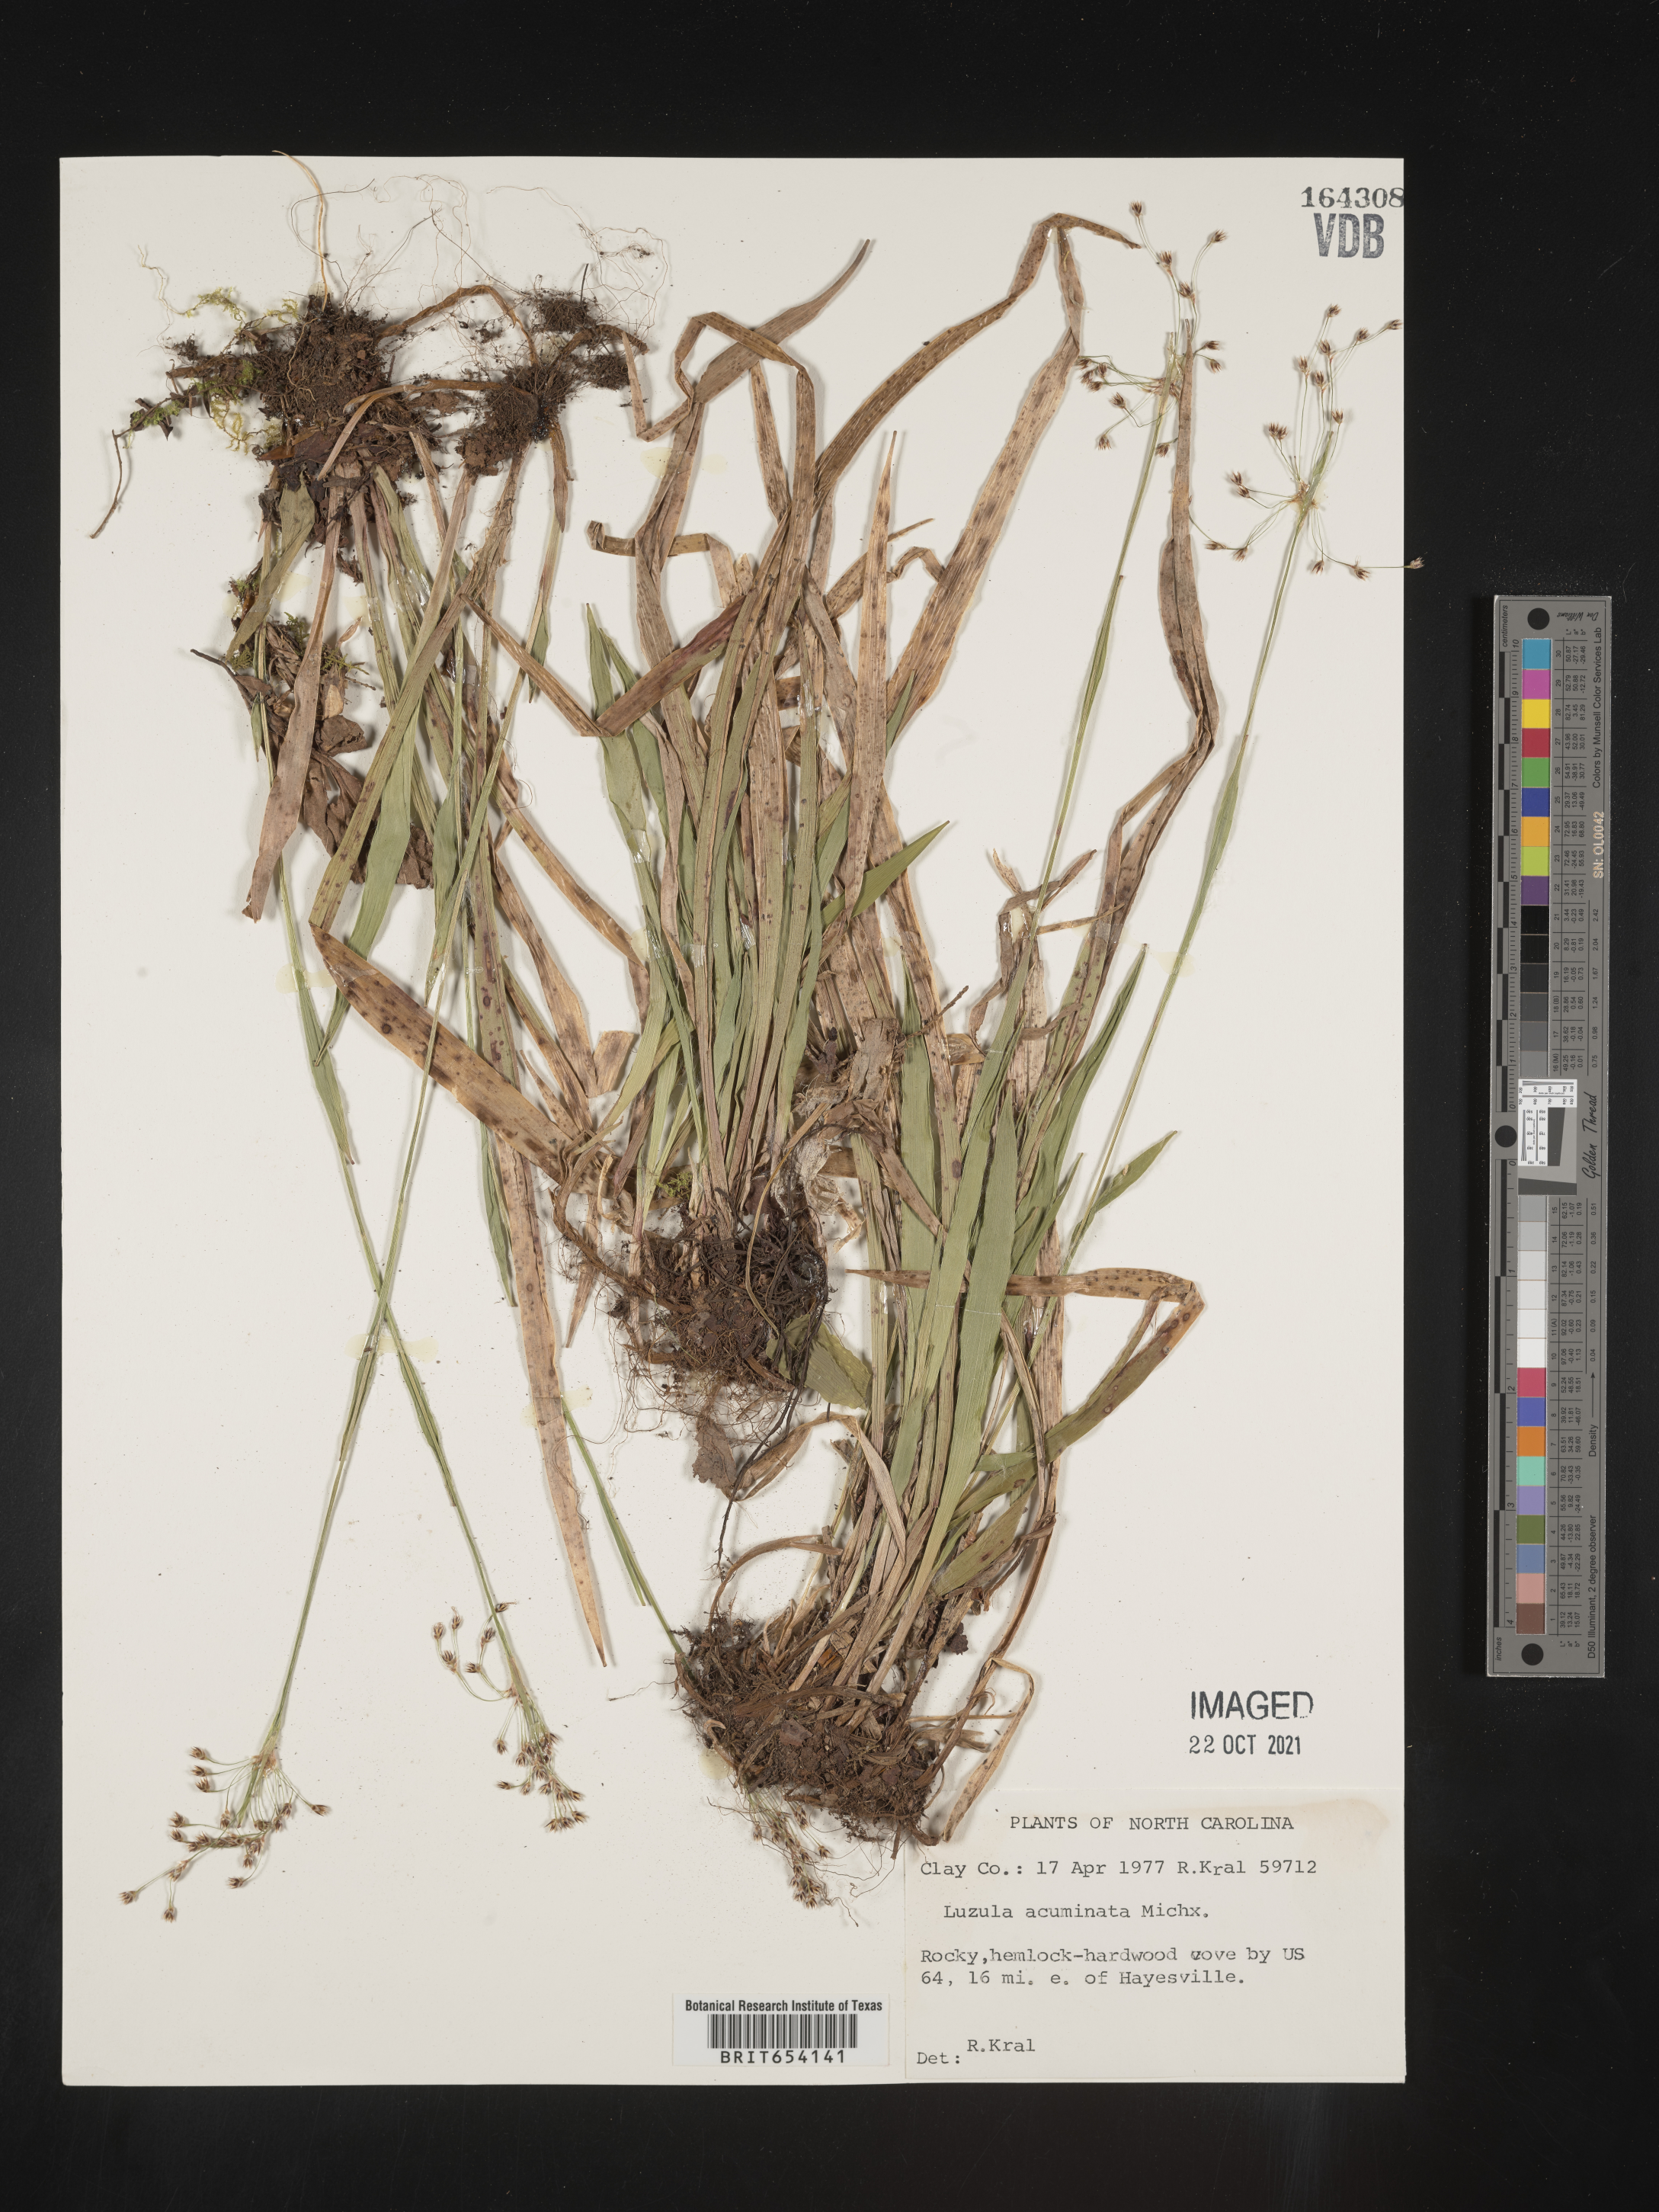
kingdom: Plantae
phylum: Tracheophyta
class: Liliopsida
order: Poales
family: Juncaceae
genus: Luzula
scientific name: Luzula acuminata
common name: Hairy woodrush
